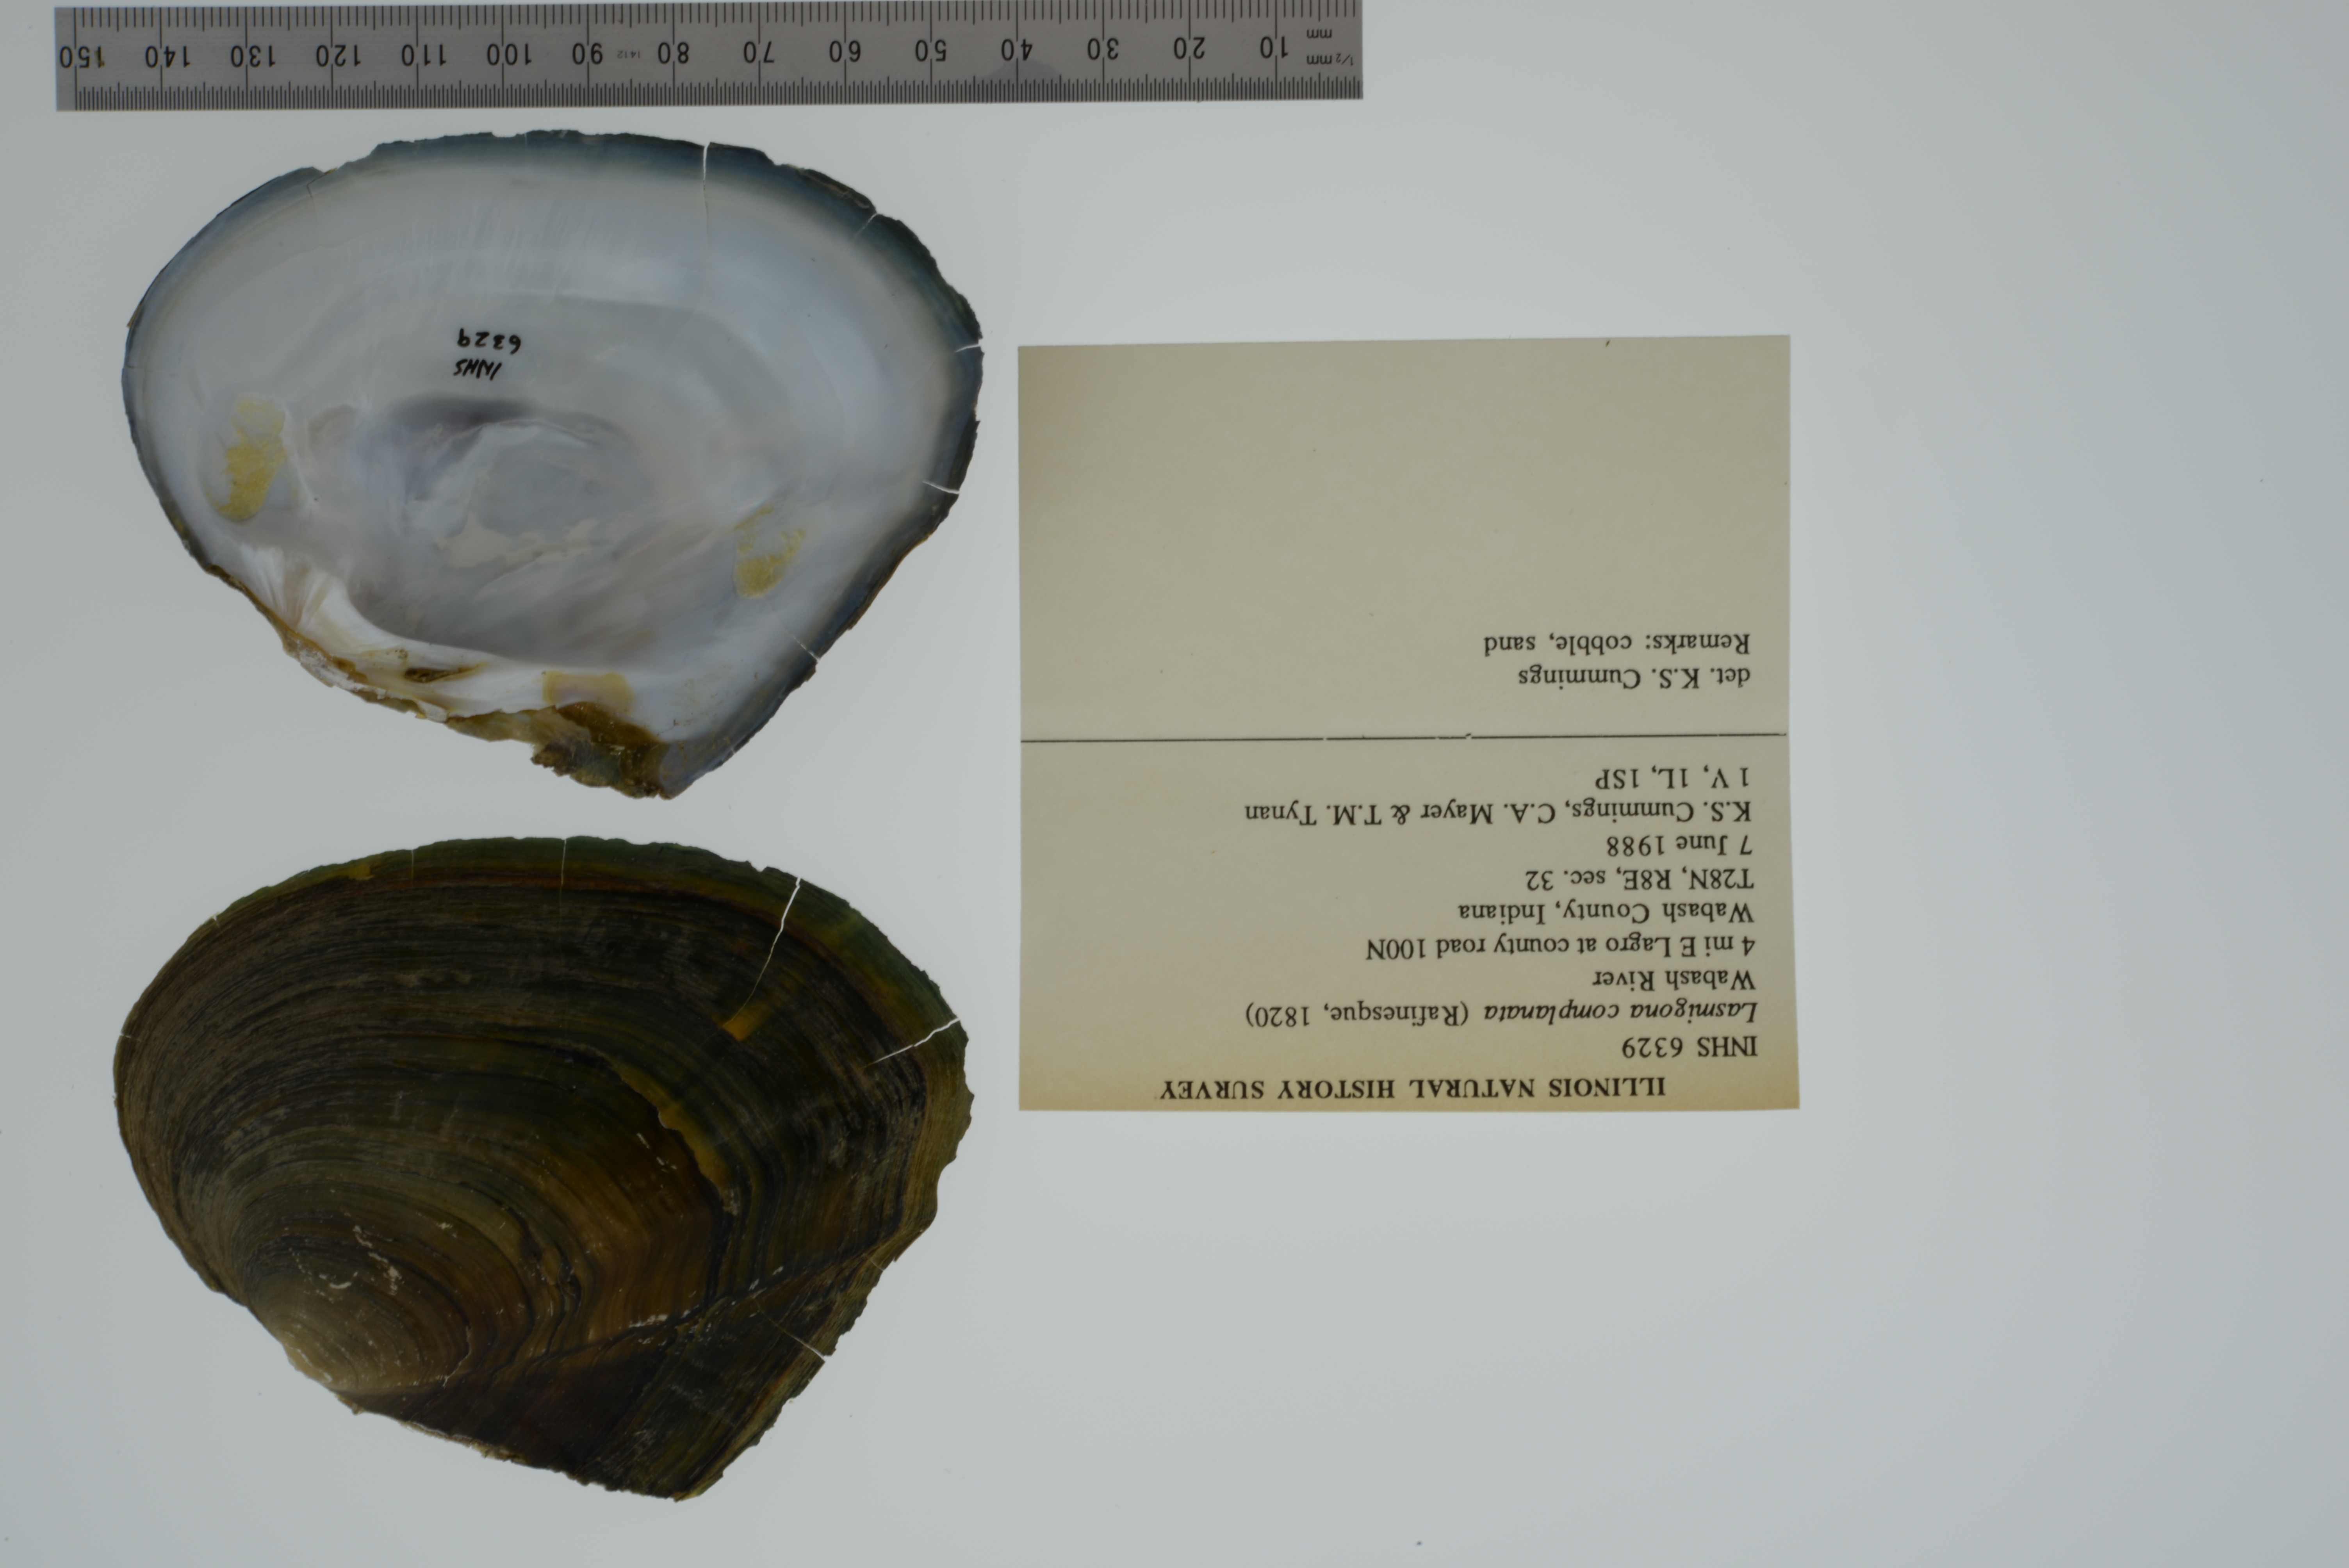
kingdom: Animalia
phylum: Mollusca
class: Bivalvia
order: Unionida
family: Unionidae
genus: Lasmigona
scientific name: Lasmigona complanata
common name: White heelsplitter
